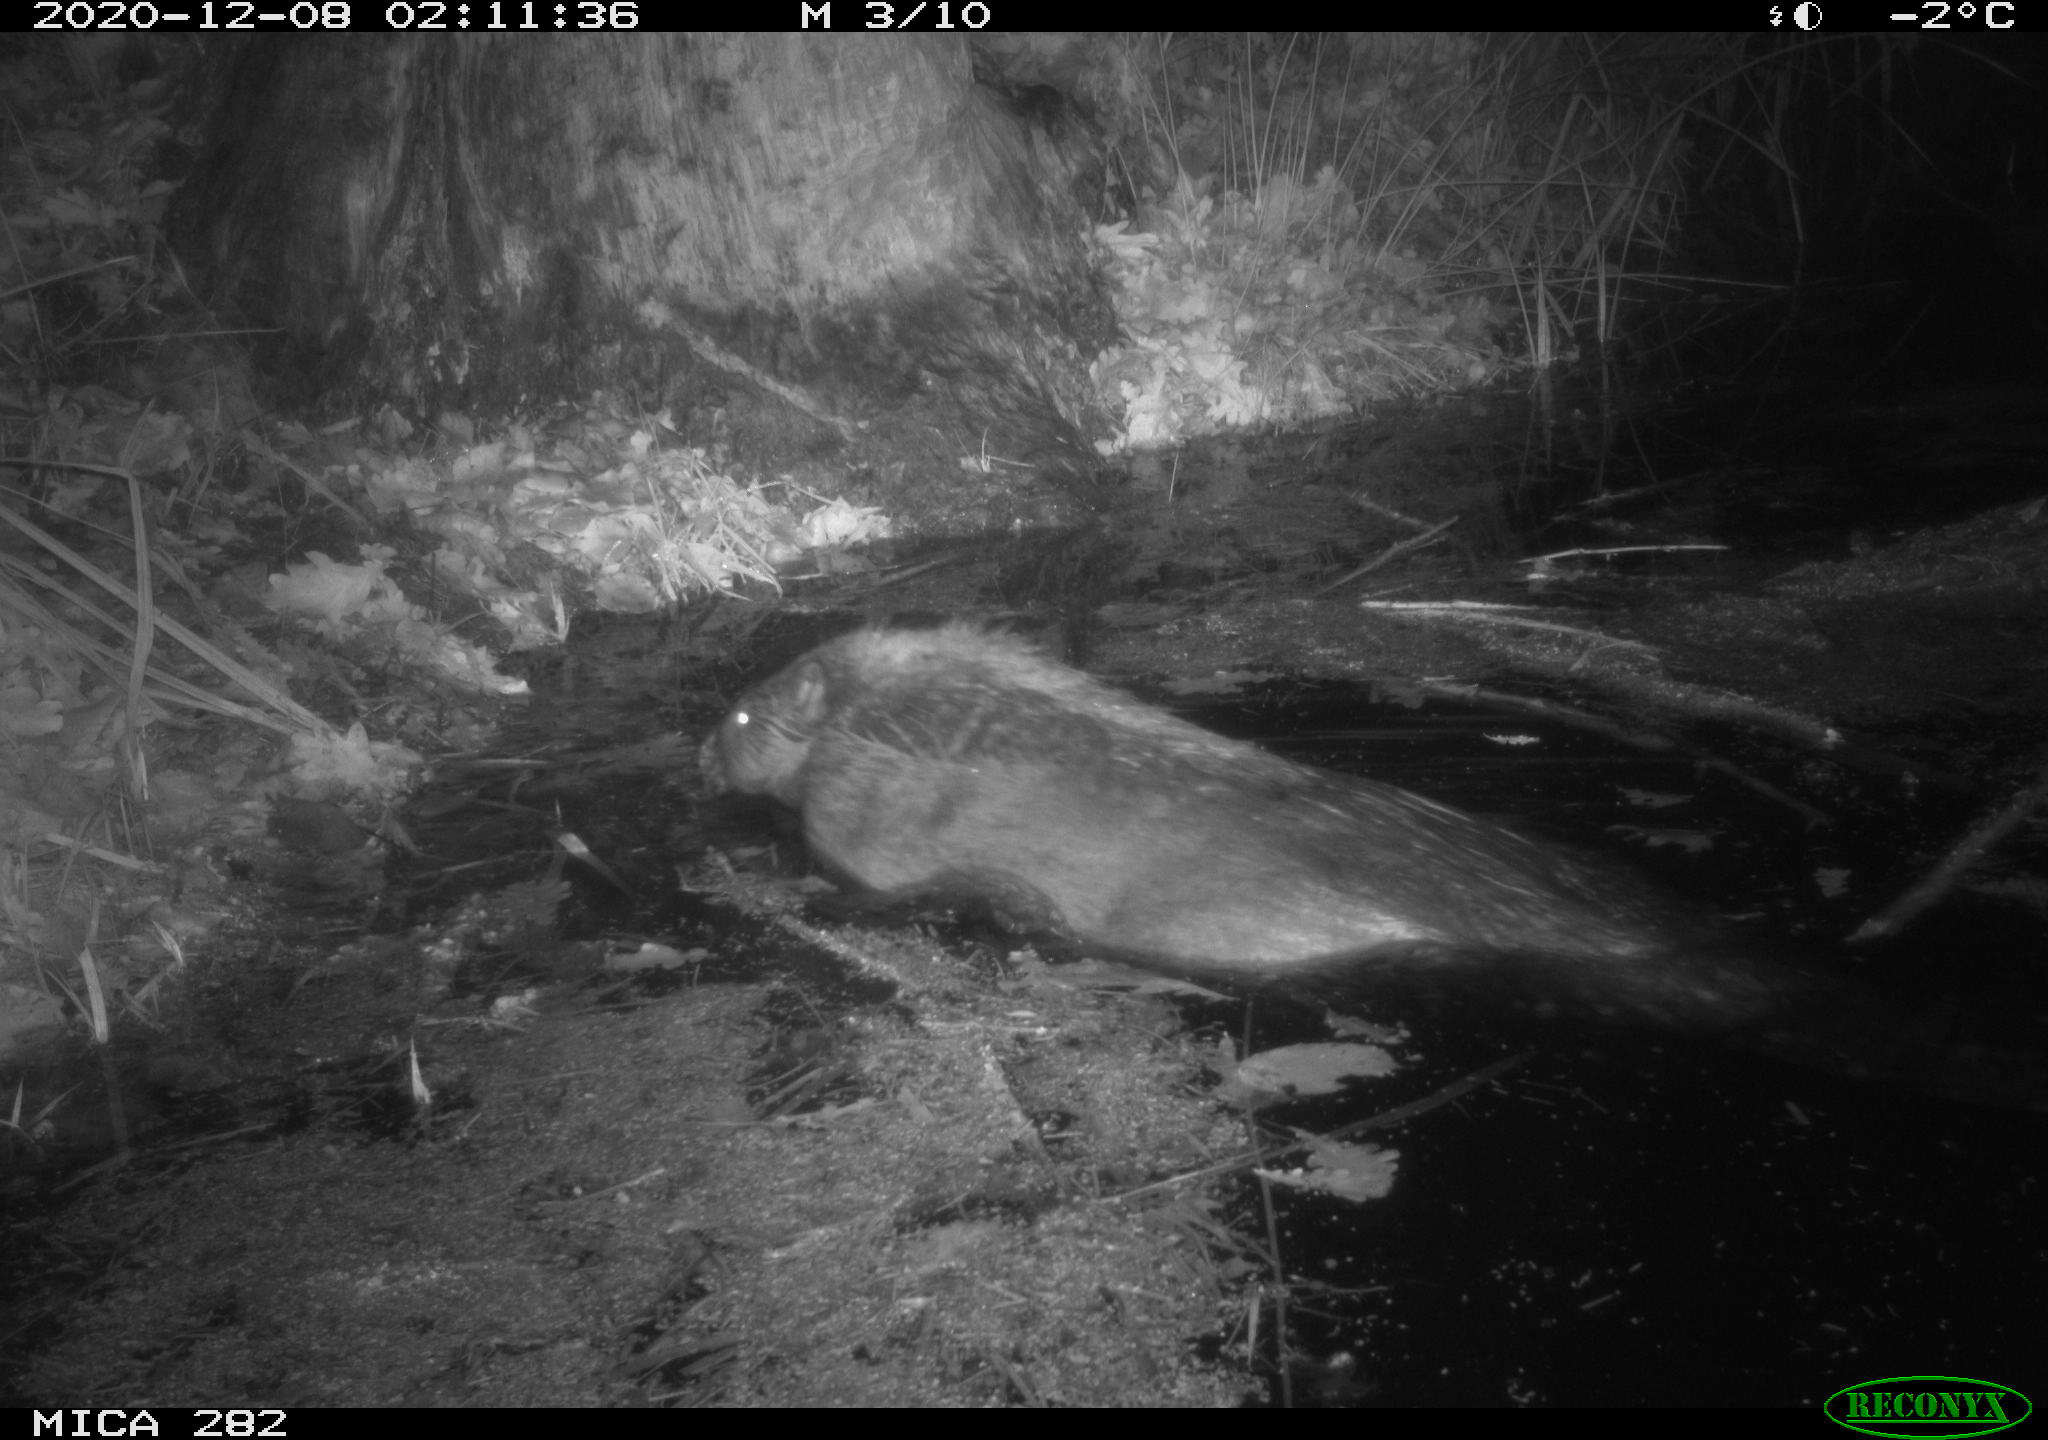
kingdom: Animalia
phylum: Chordata
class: Mammalia
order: Rodentia
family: Castoridae
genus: Castor
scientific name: Castor fiber
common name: Eurasian beaver
